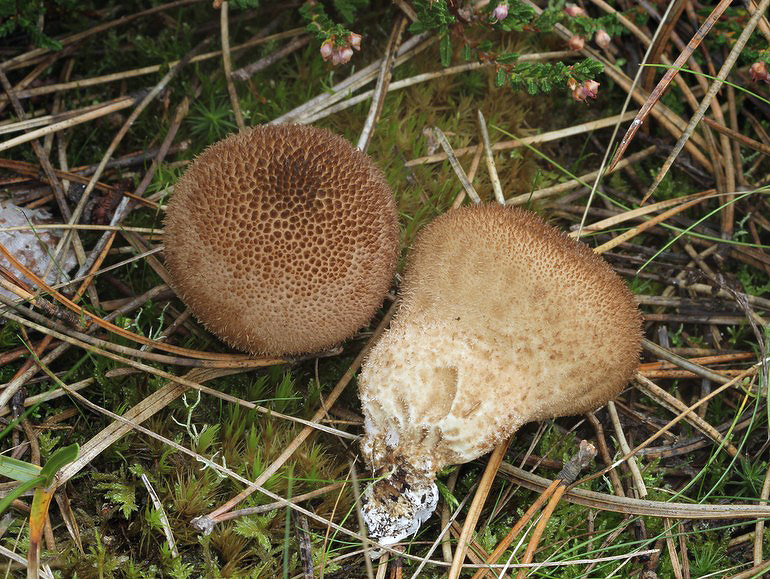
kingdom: Fungi
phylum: Basidiomycota
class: Agaricomycetes
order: Agaricales
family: Lycoperdaceae
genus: Lycoperdon
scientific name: Lycoperdon nigrescens
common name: sortagtig støvbold
